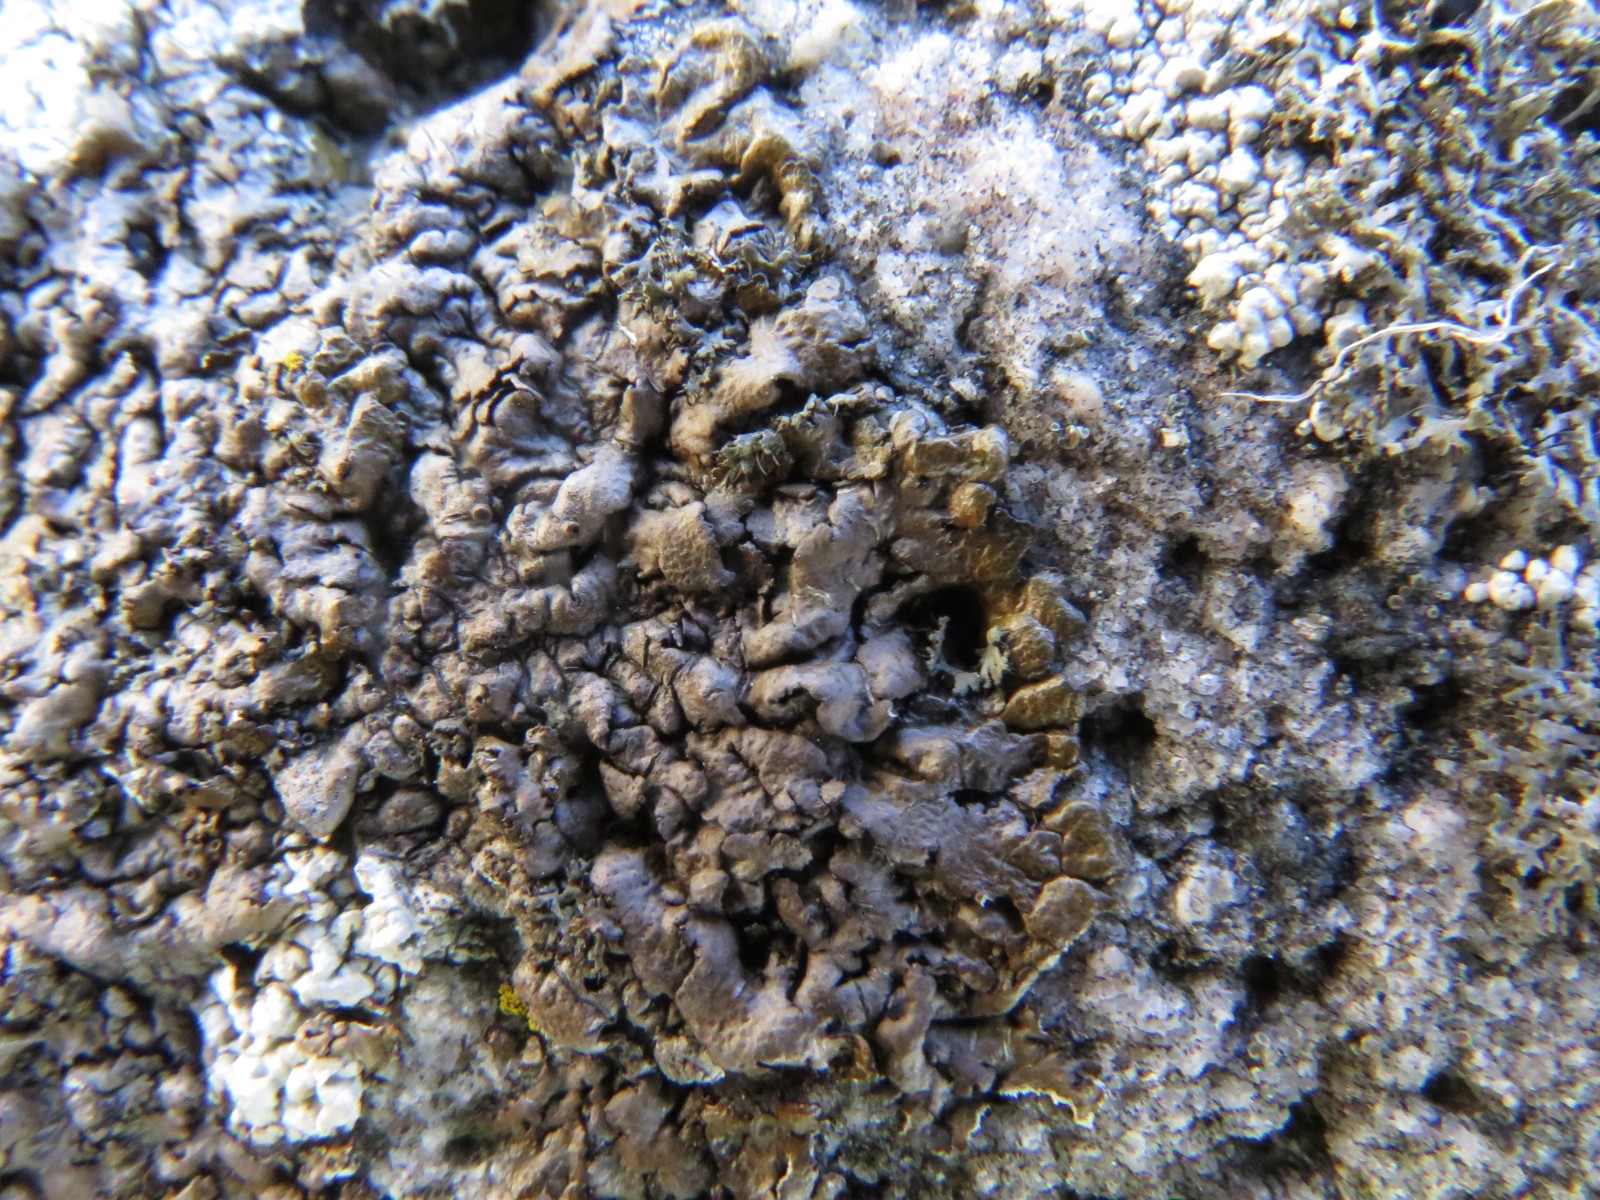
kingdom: Fungi
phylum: Ascomycota
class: Lecanoromycetes
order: Lecanorales
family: Parmeliaceae
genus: Xanthoparmelia
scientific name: Xanthoparmelia verruculifera
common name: småknoppet skållav
